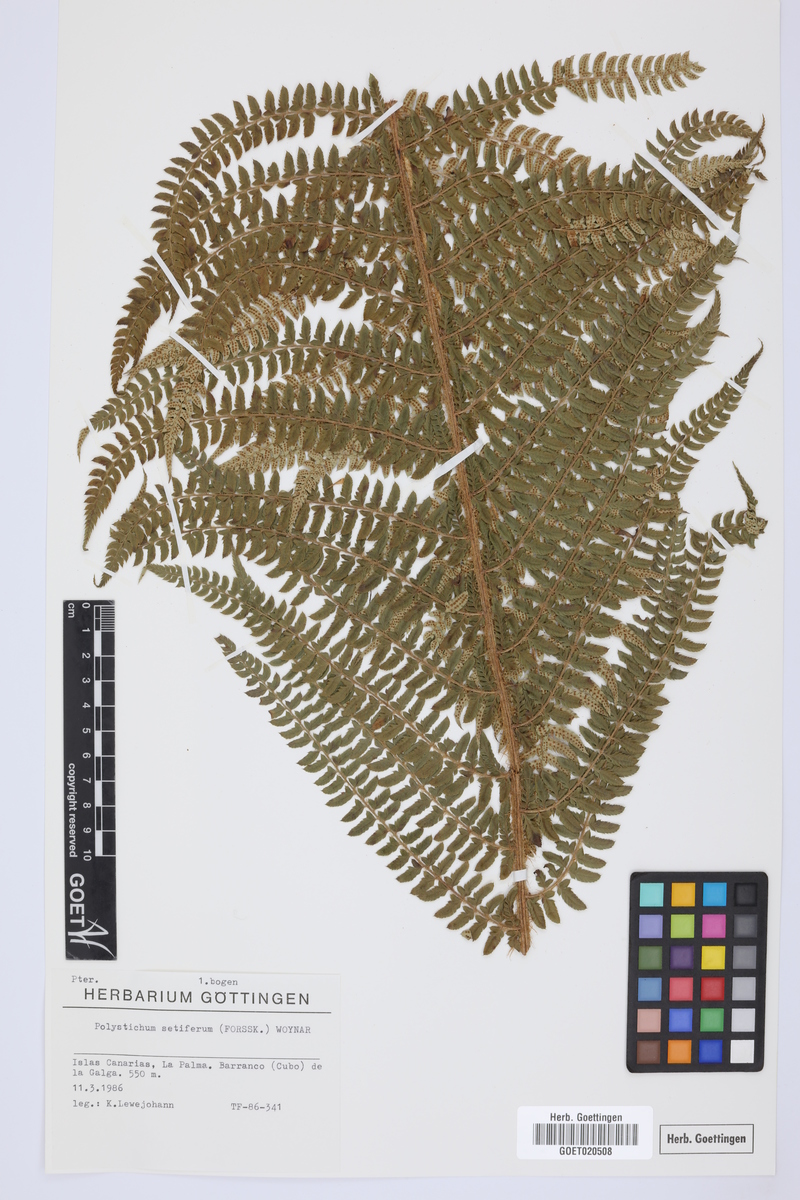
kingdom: Plantae
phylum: Tracheophyta
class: Polypodiopsida
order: Polypodiales
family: Dryopteridaceae
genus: Polystichum
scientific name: Polystichum setiferum
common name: Soft shield-fern
